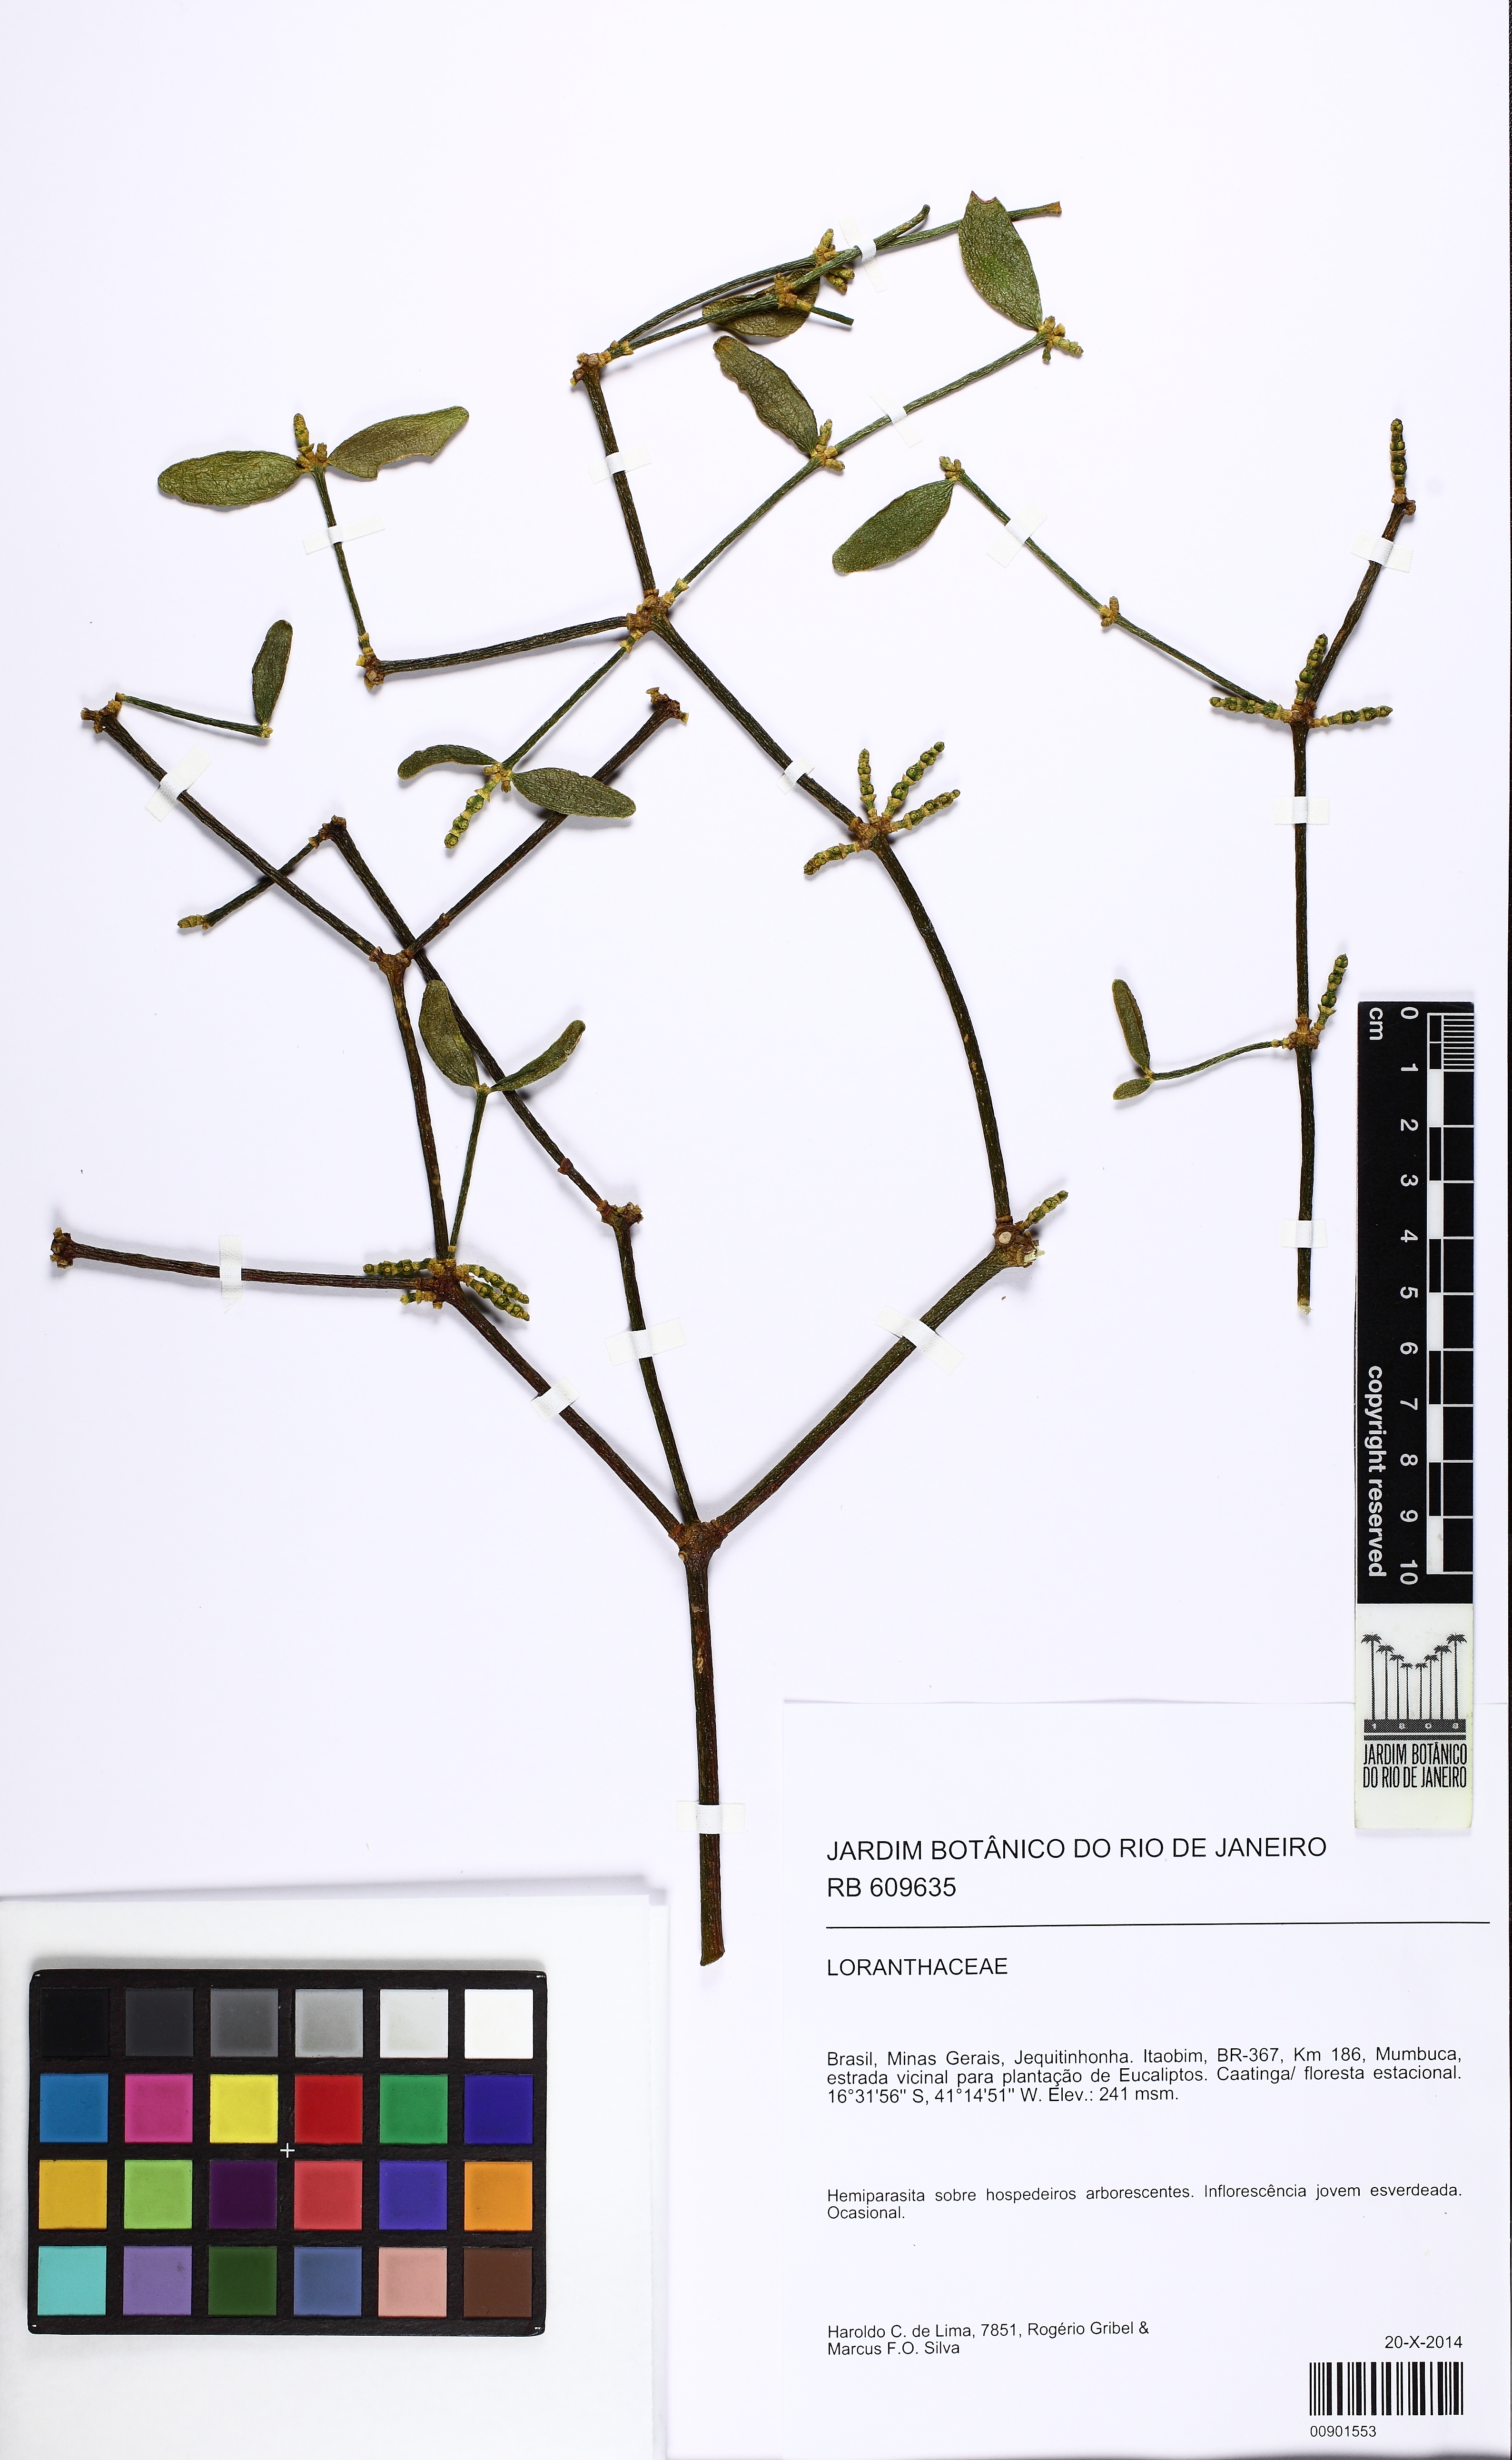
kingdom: Plantae
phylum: Tracheophyta
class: Magnoliopsida
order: Santalales
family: Viscaceae
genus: Phoradendron
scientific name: Phoradendron strongyloclados
